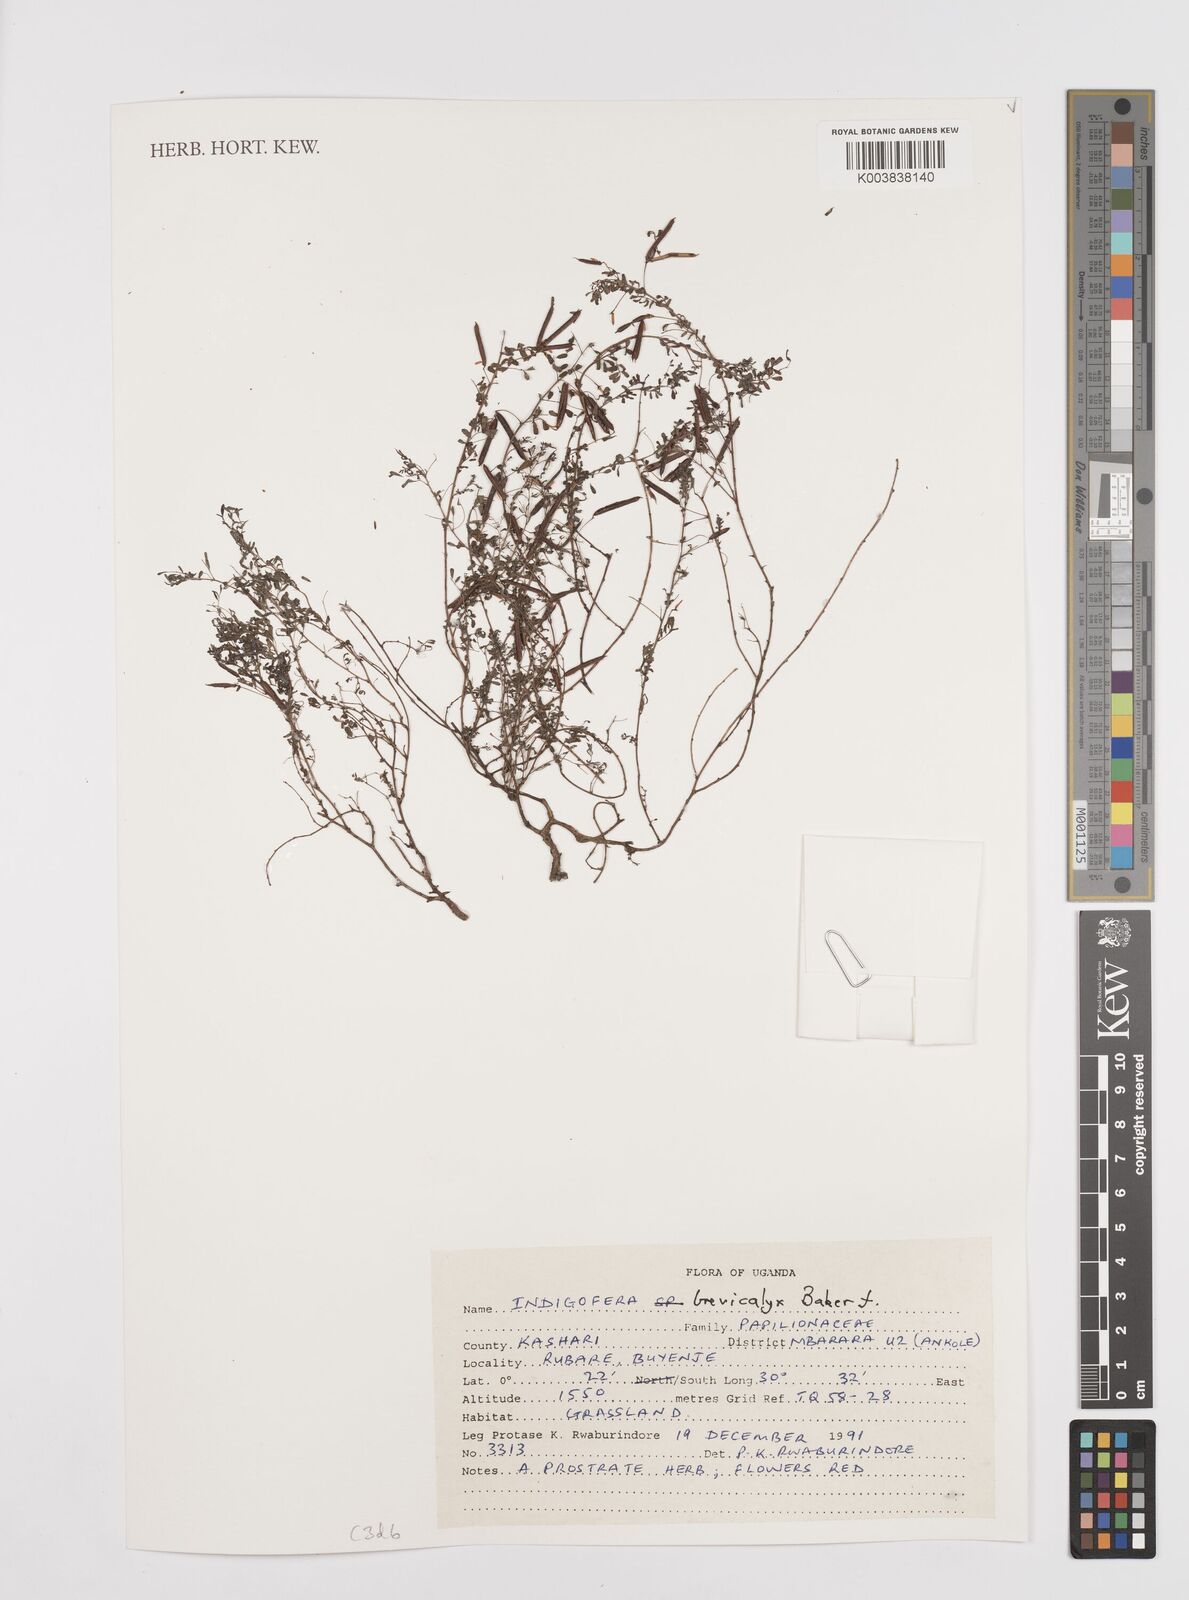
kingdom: Plantae
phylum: Tracheophyta
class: Magnoliopsida
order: Fabales
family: Fabaceae
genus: Indigofera
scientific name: Indigofera brevicalyx
